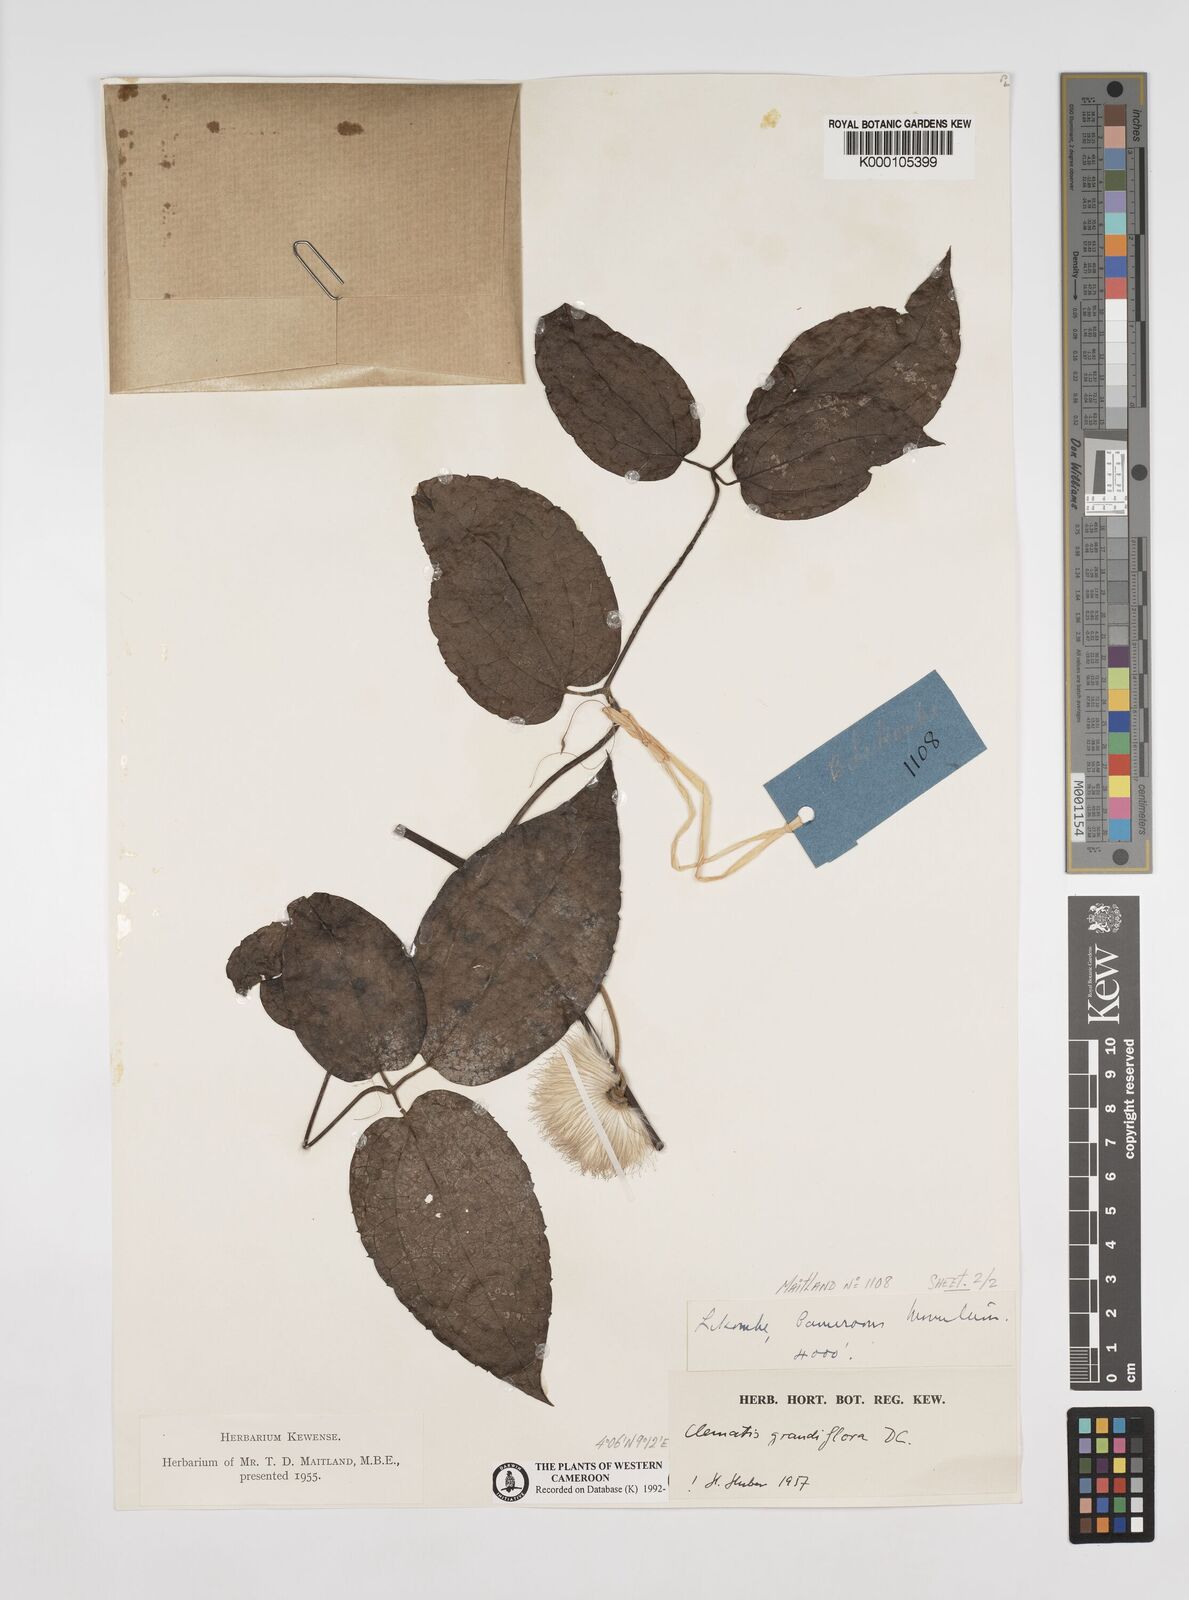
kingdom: Plantae
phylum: Tracheophyta
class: Magnoliopsida
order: Ranunculales
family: Ranunculaceae
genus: Clematis
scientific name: Clematis grandiflora
